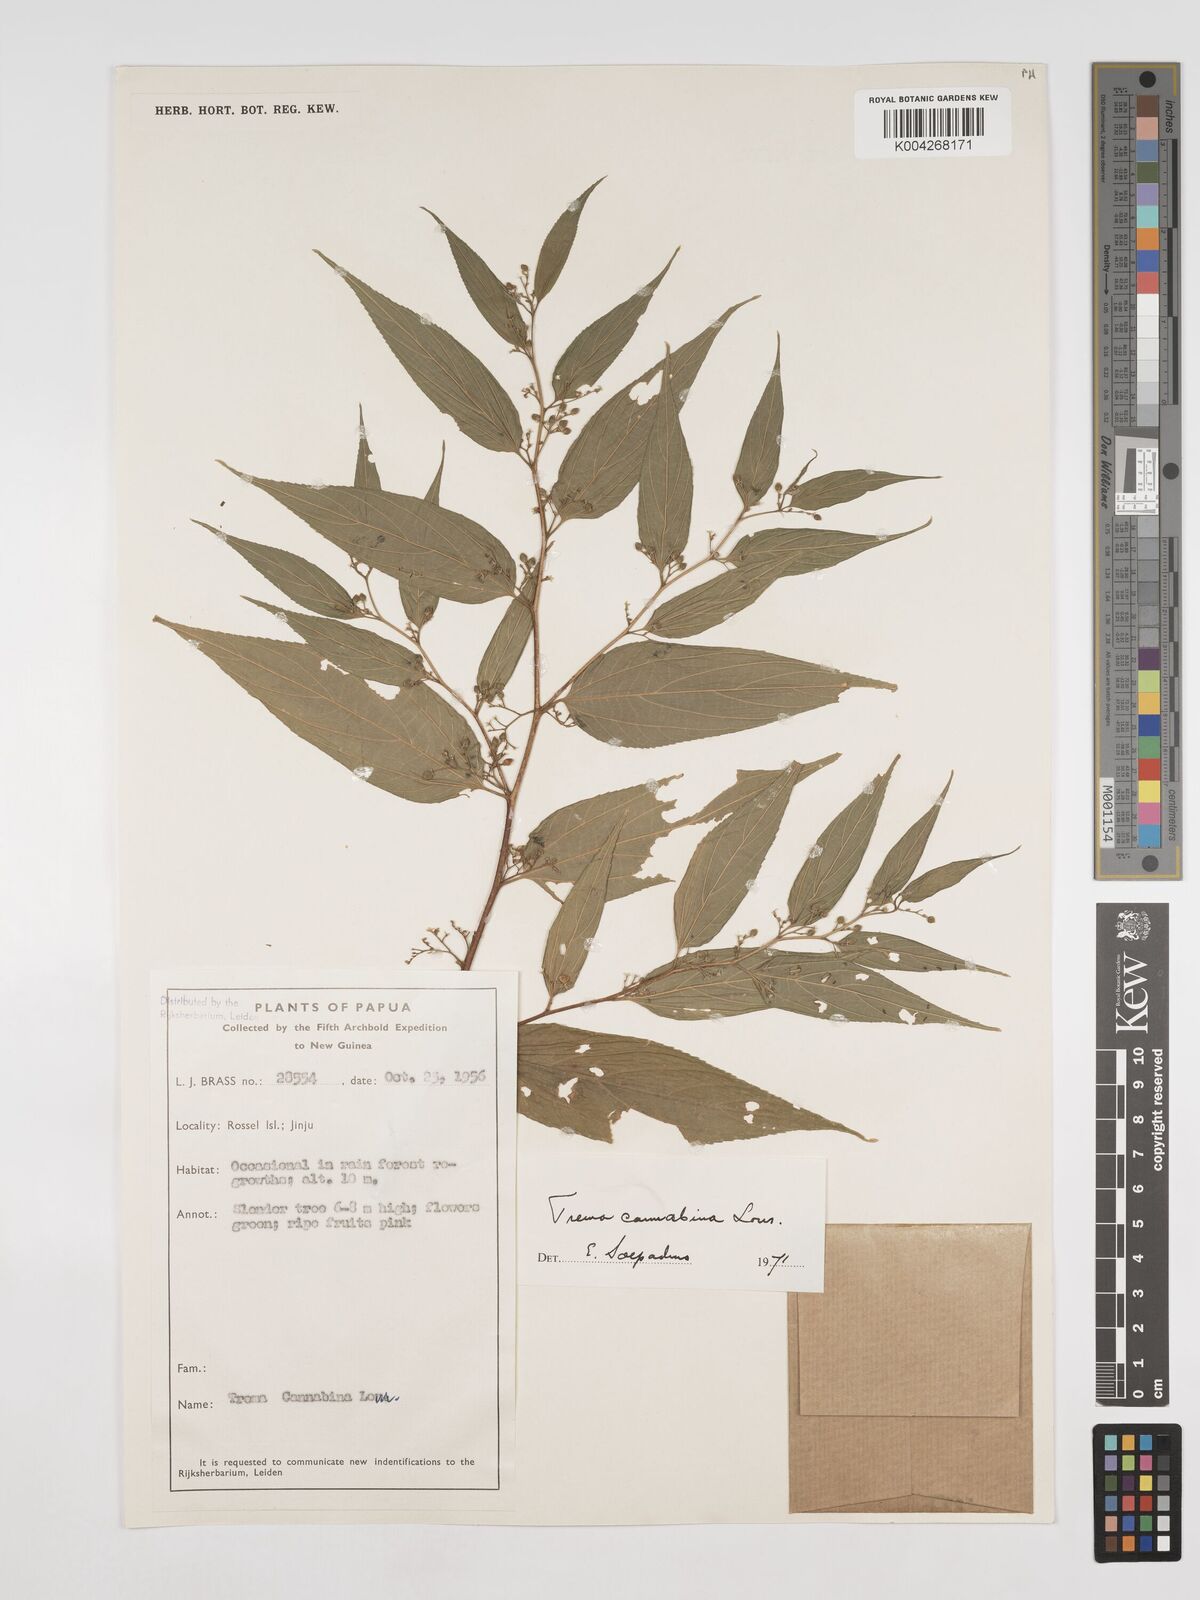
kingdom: Plantae
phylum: Tracheophyta
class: Magnoliopsida
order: Rosales
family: Cannabaceae
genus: Trema
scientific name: Trema
